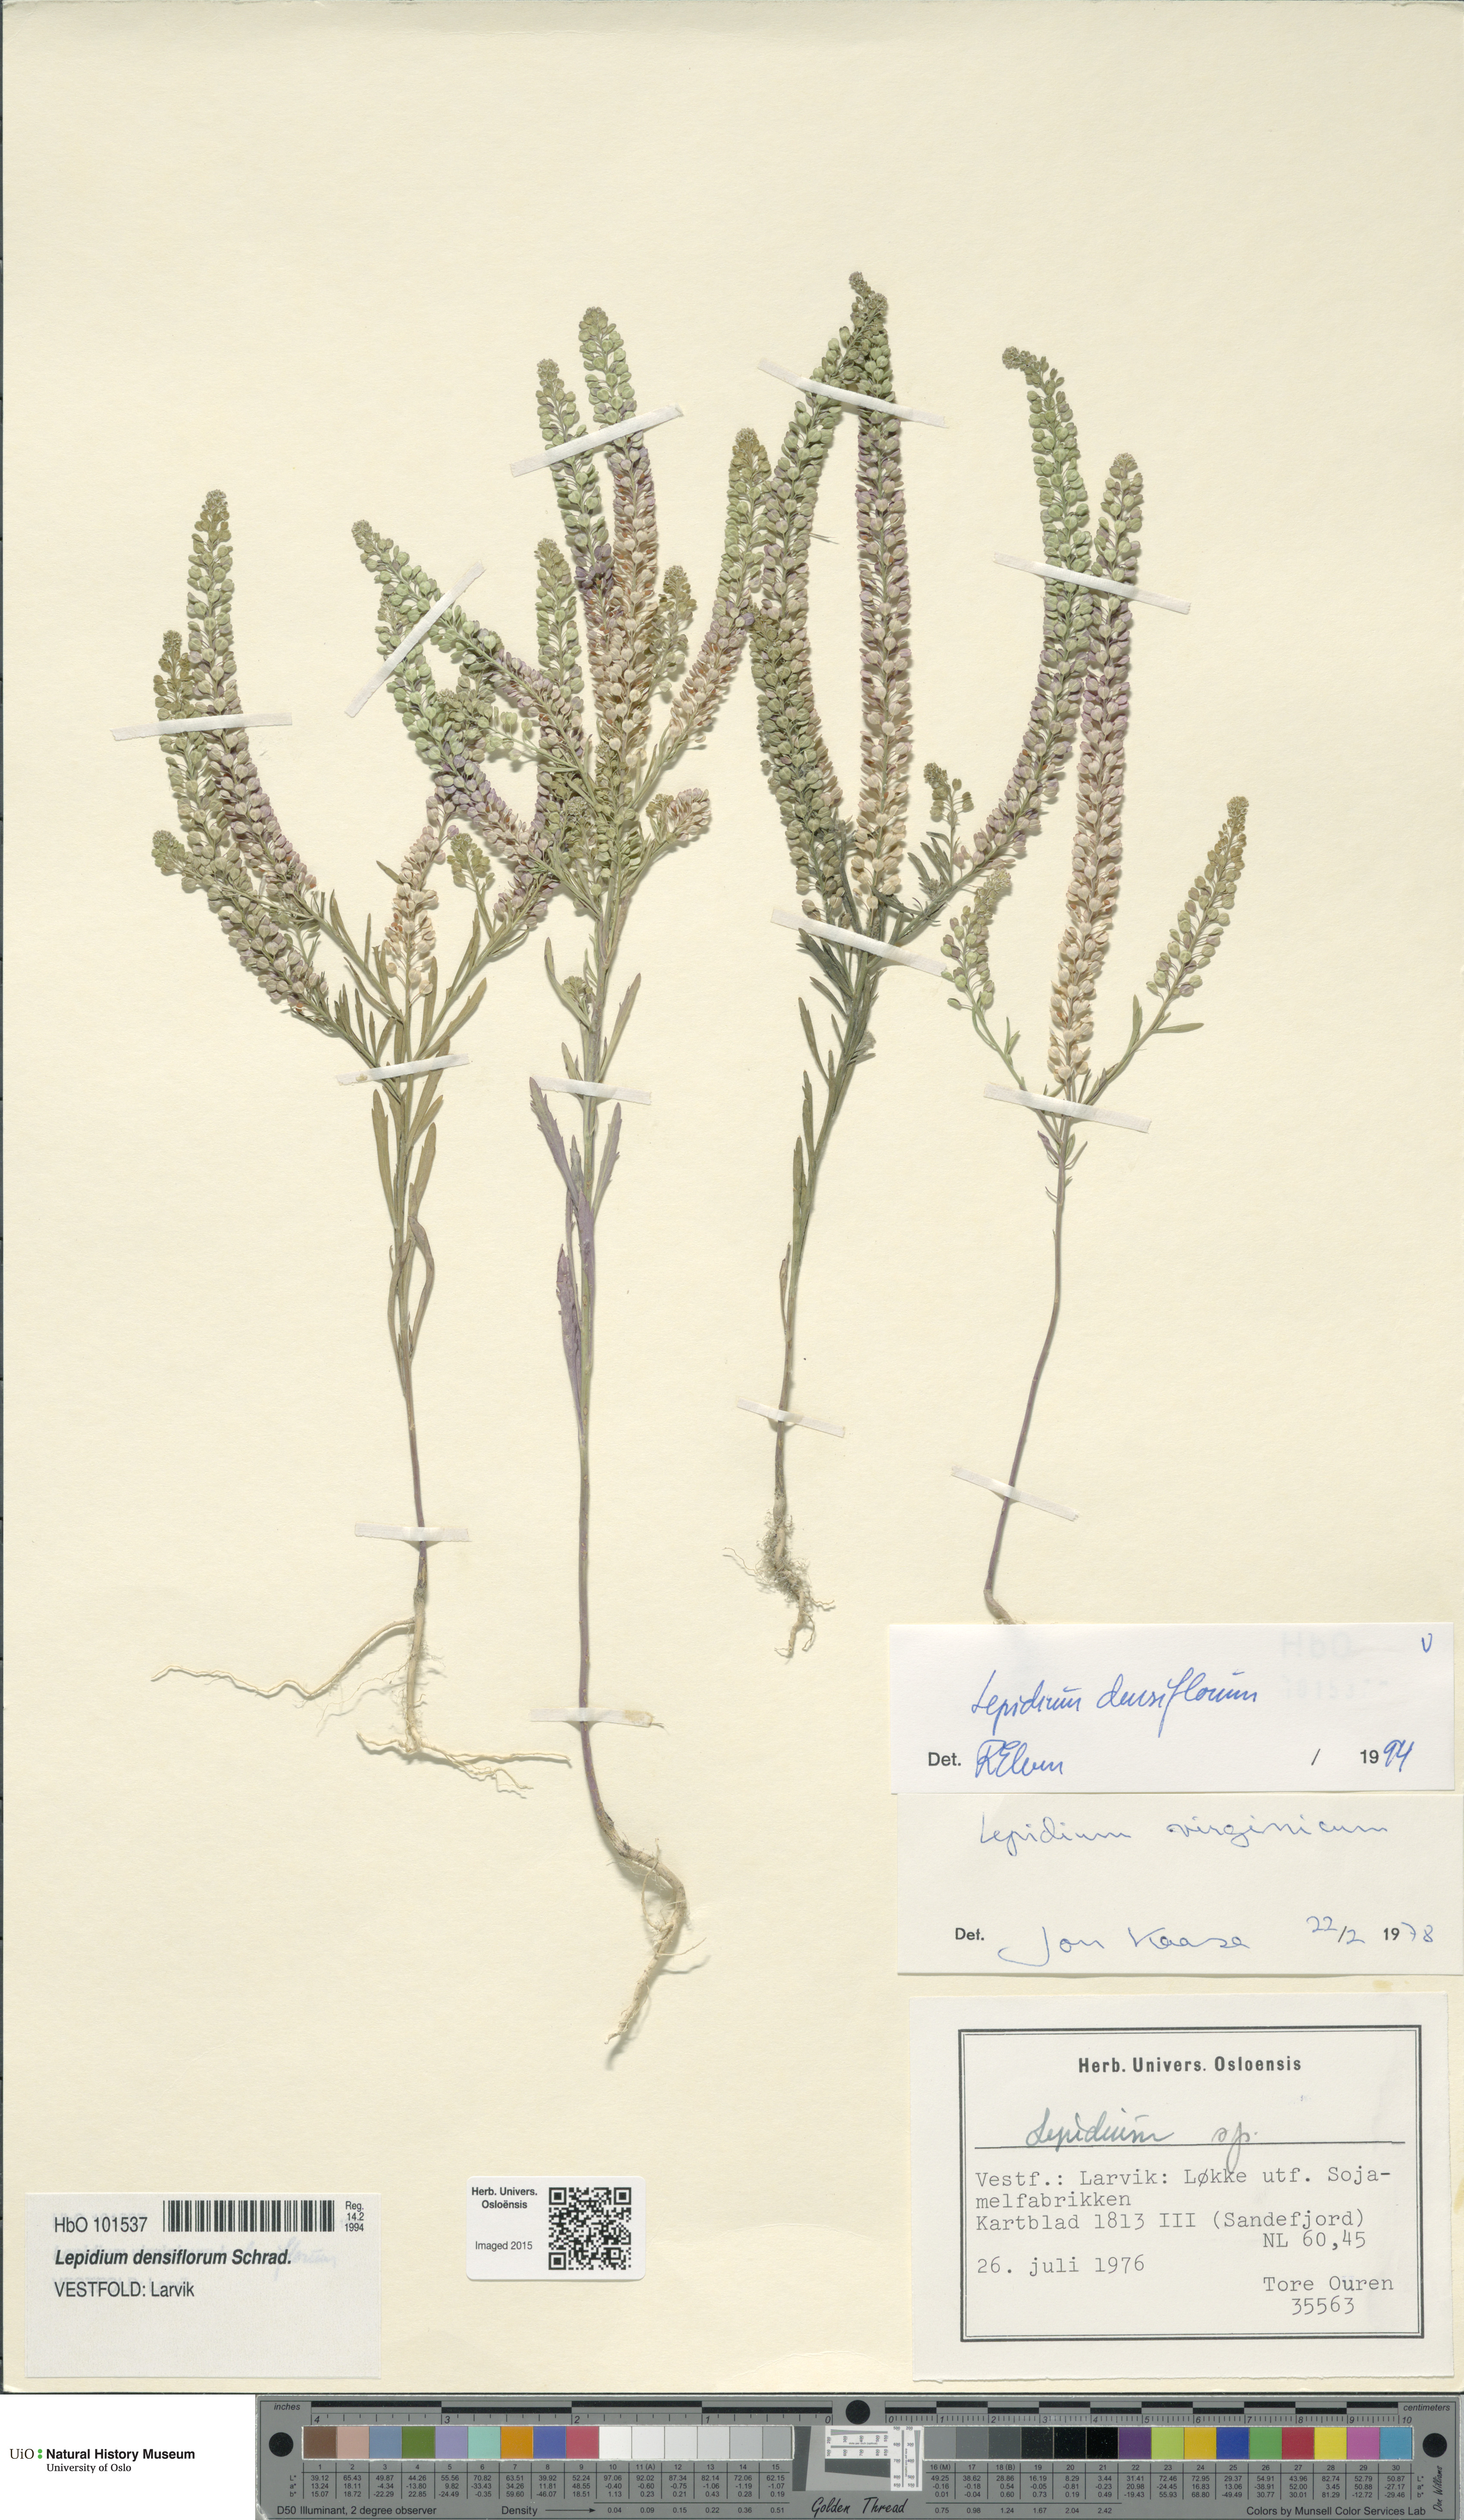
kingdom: Plantae
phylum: Tracheophyta
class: Magnoliopsida
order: Brassicales
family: Brassicaceae
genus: Lepidium
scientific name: Lepidium densiflorum
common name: Miner's pepperwort
